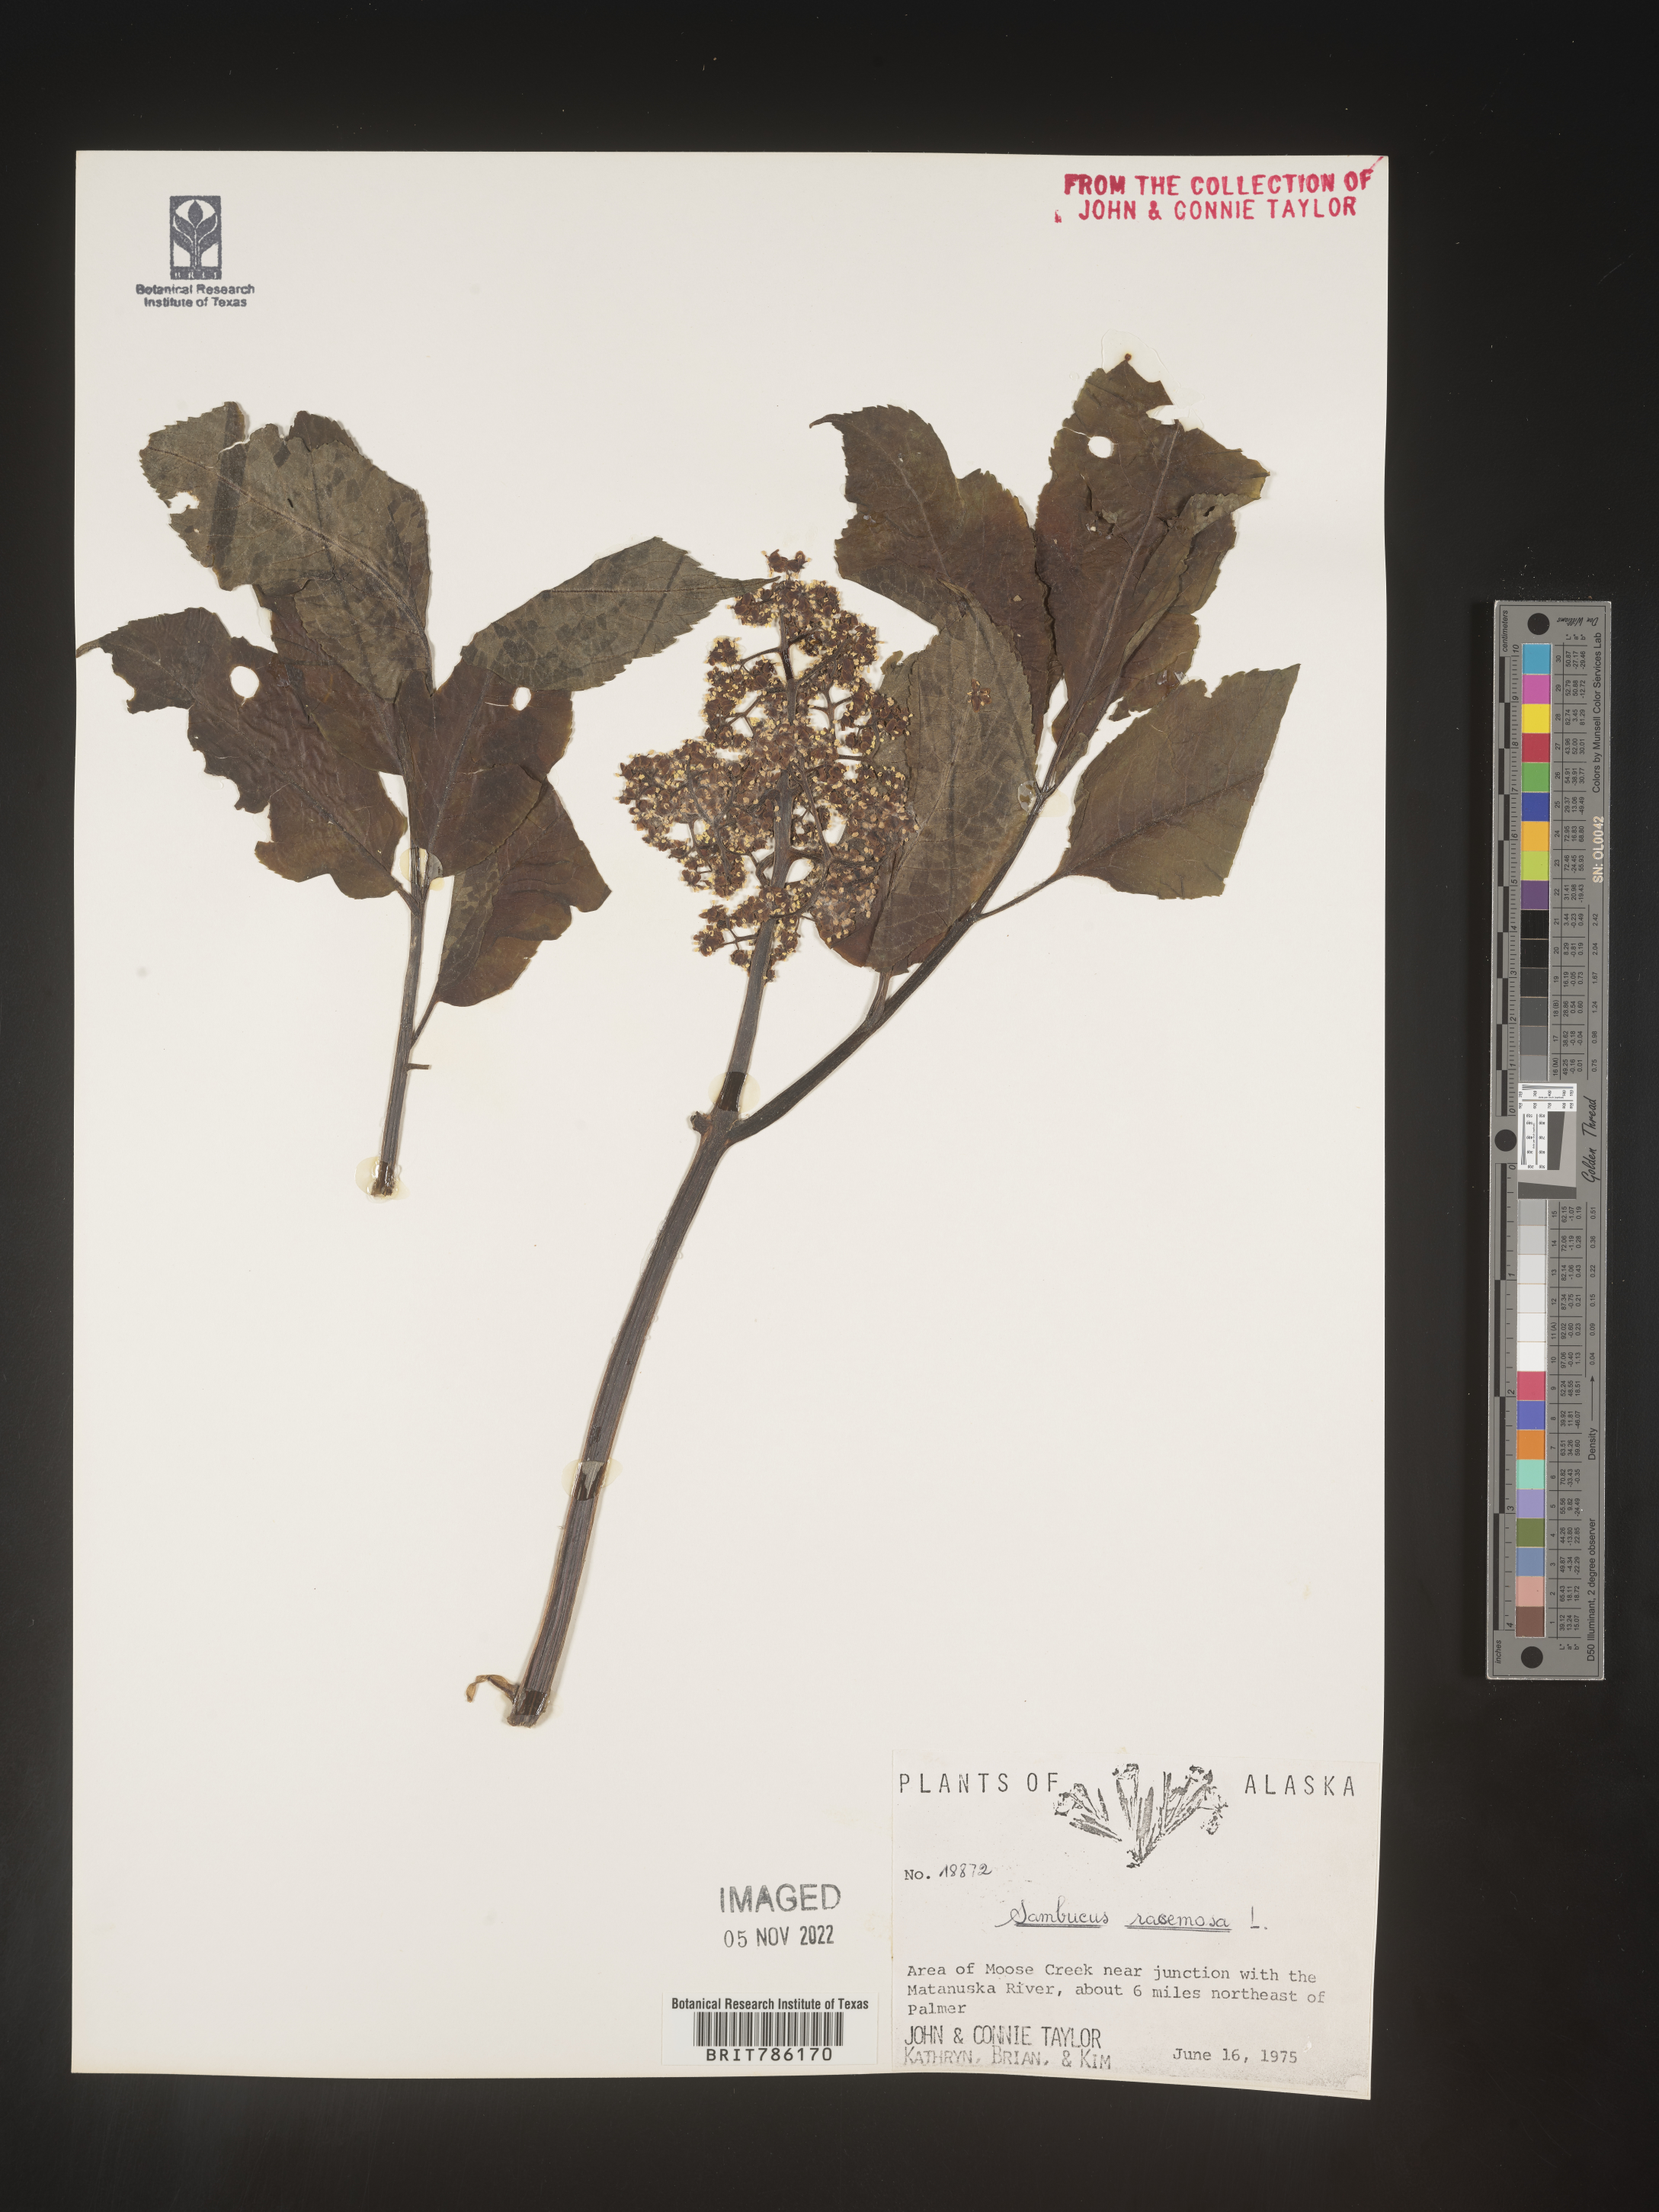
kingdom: Plantae
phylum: Tracheophyta
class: Magnoliopsida
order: Dipsacales
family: Viburnaceae
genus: Sambucus
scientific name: Sambucus
